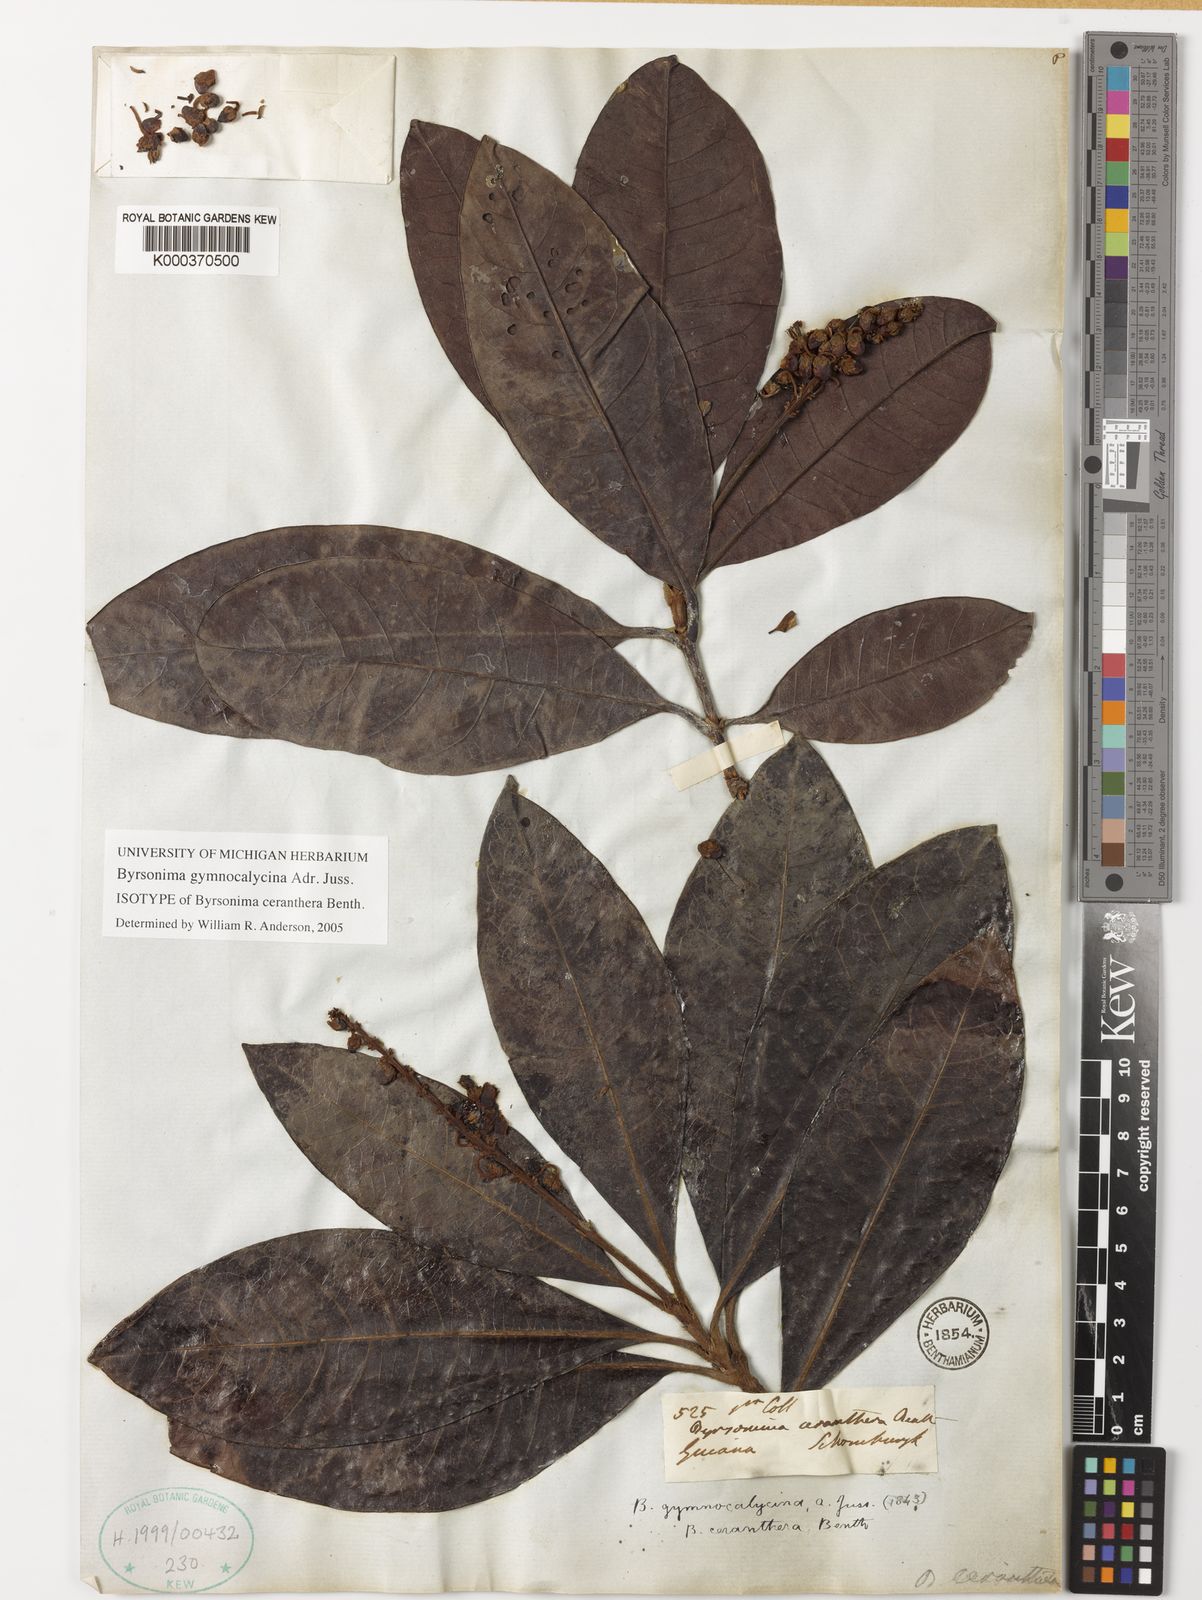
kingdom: Plantae
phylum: Tracheophyta
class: Magnoliopsida
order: Malpighiales
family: Malpighiaceae
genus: Byrsonima
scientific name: Byrsonima gymnocalycina
